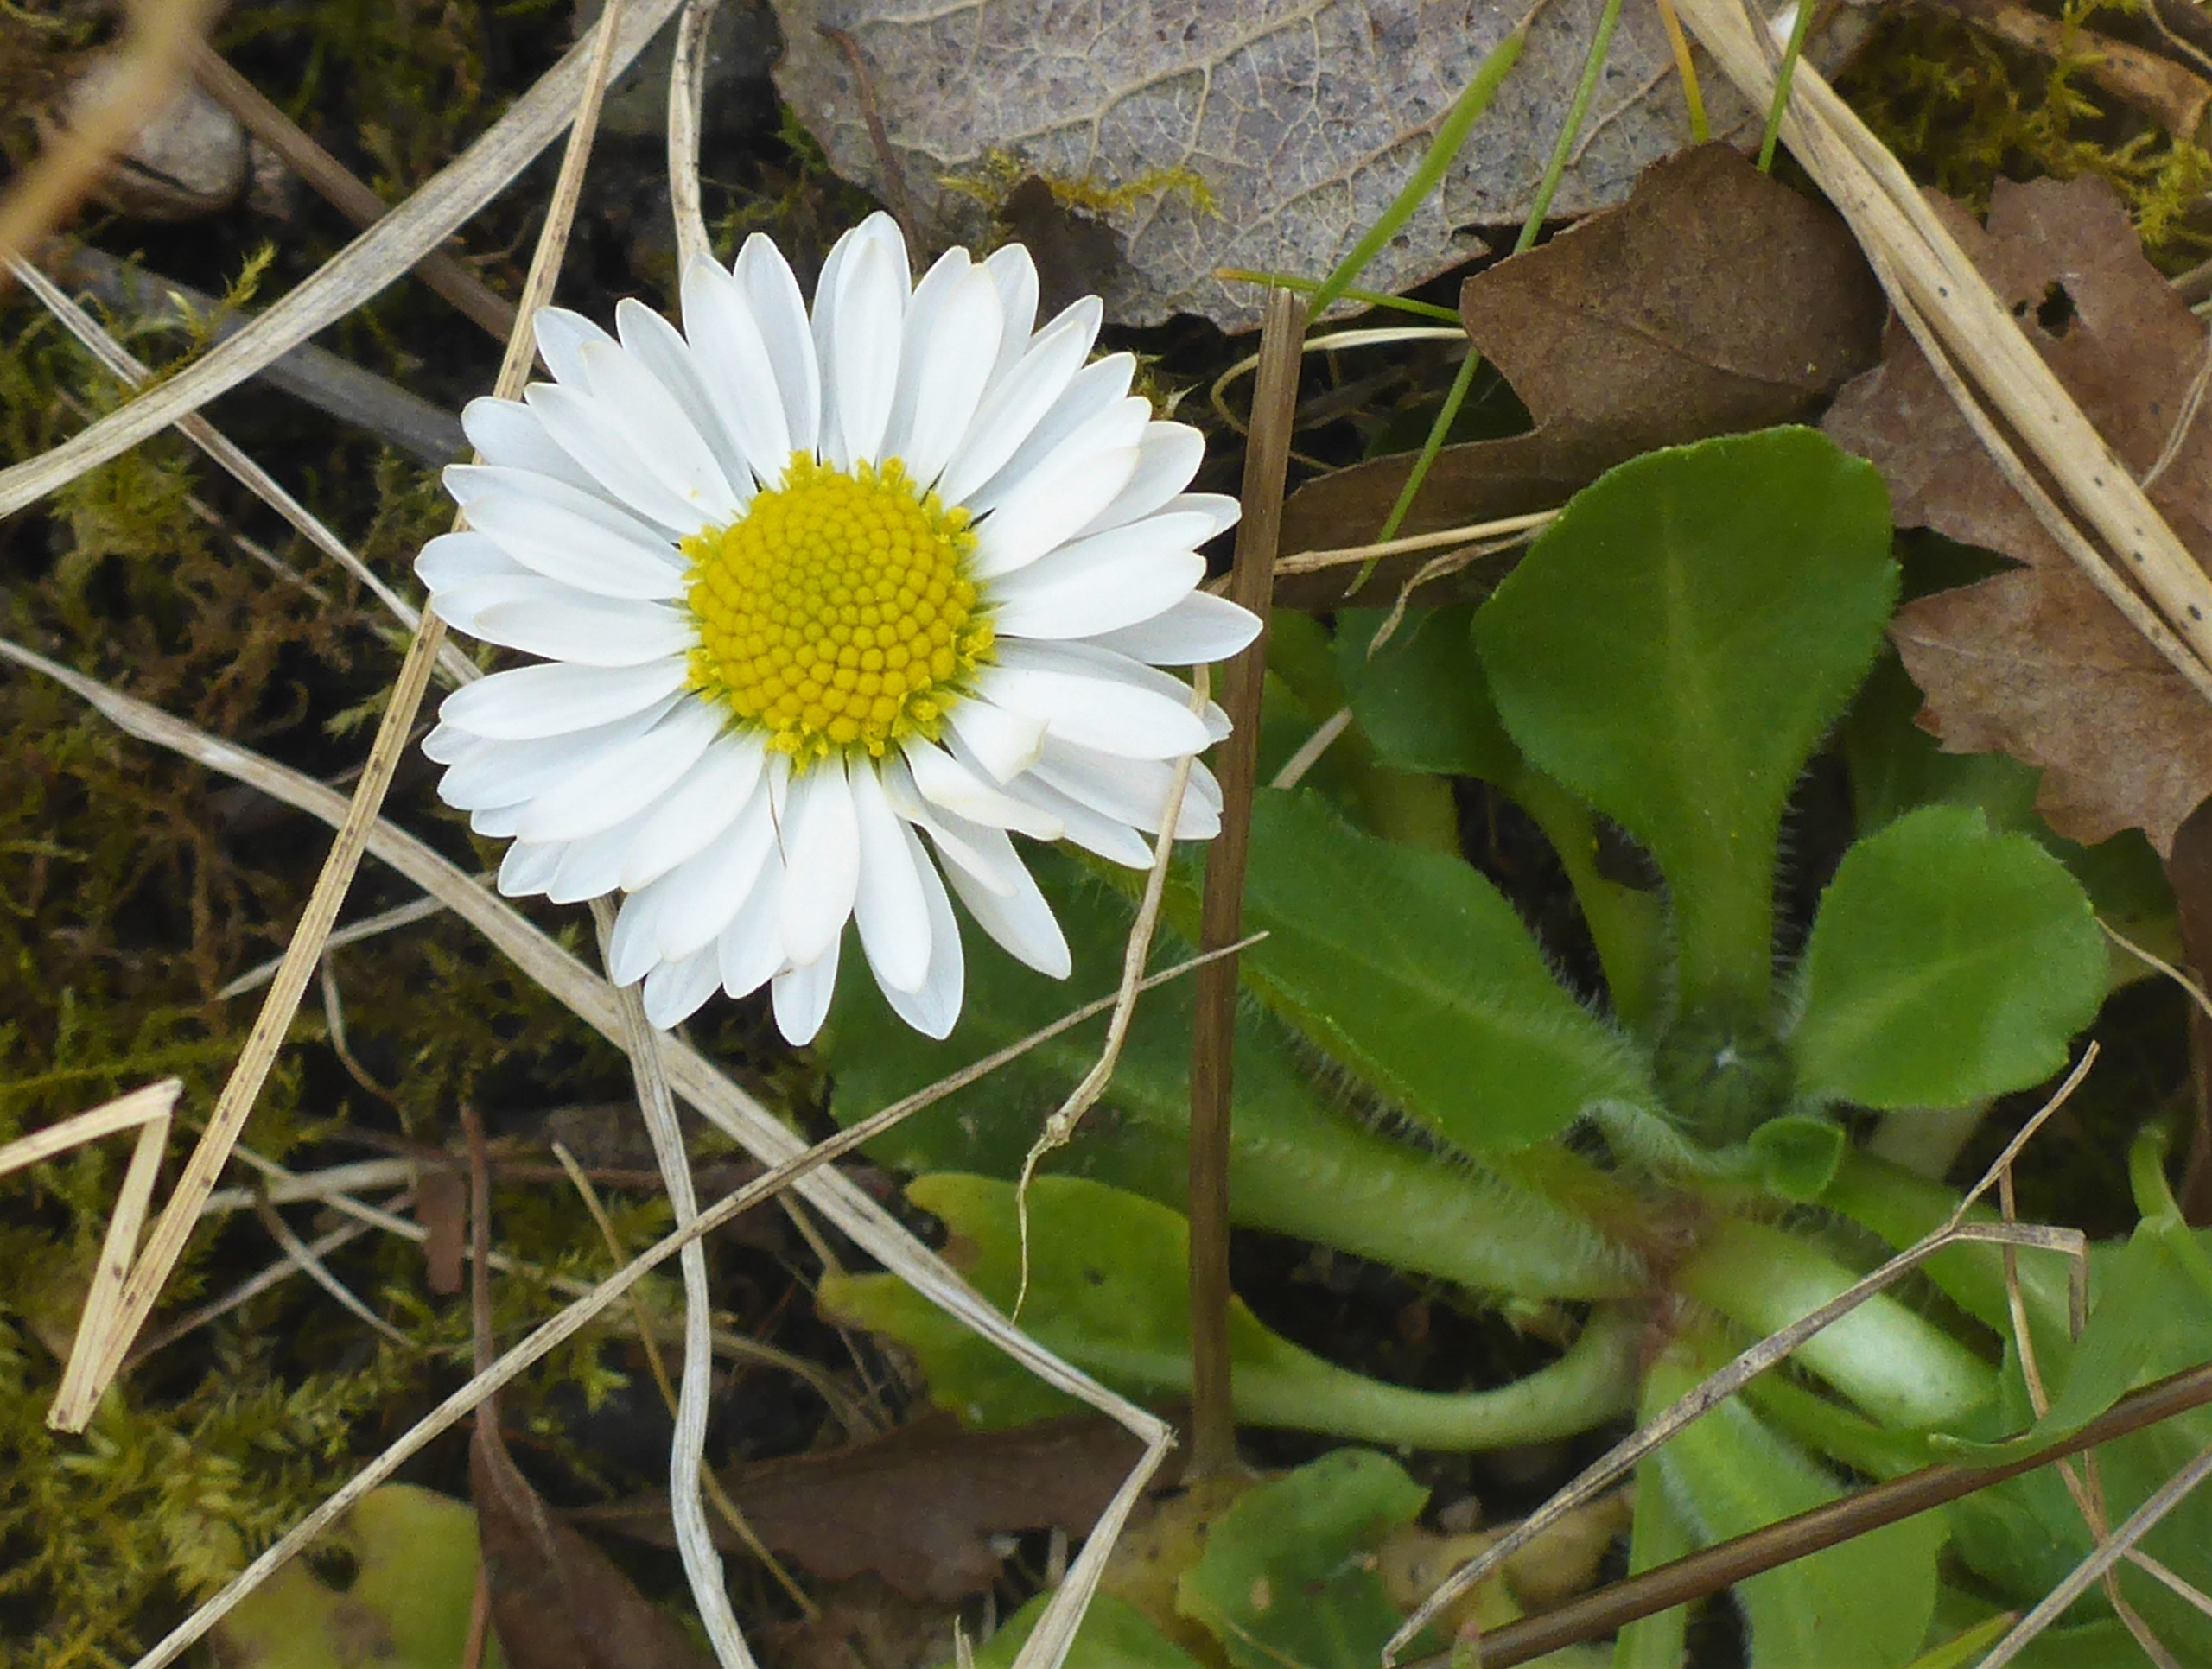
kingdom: Plantae
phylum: Tracheophyta
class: Magnoliopsida
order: Asterales
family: Asteraceae
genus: Bellis
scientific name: Bellis perennis
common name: Tusindfryd
